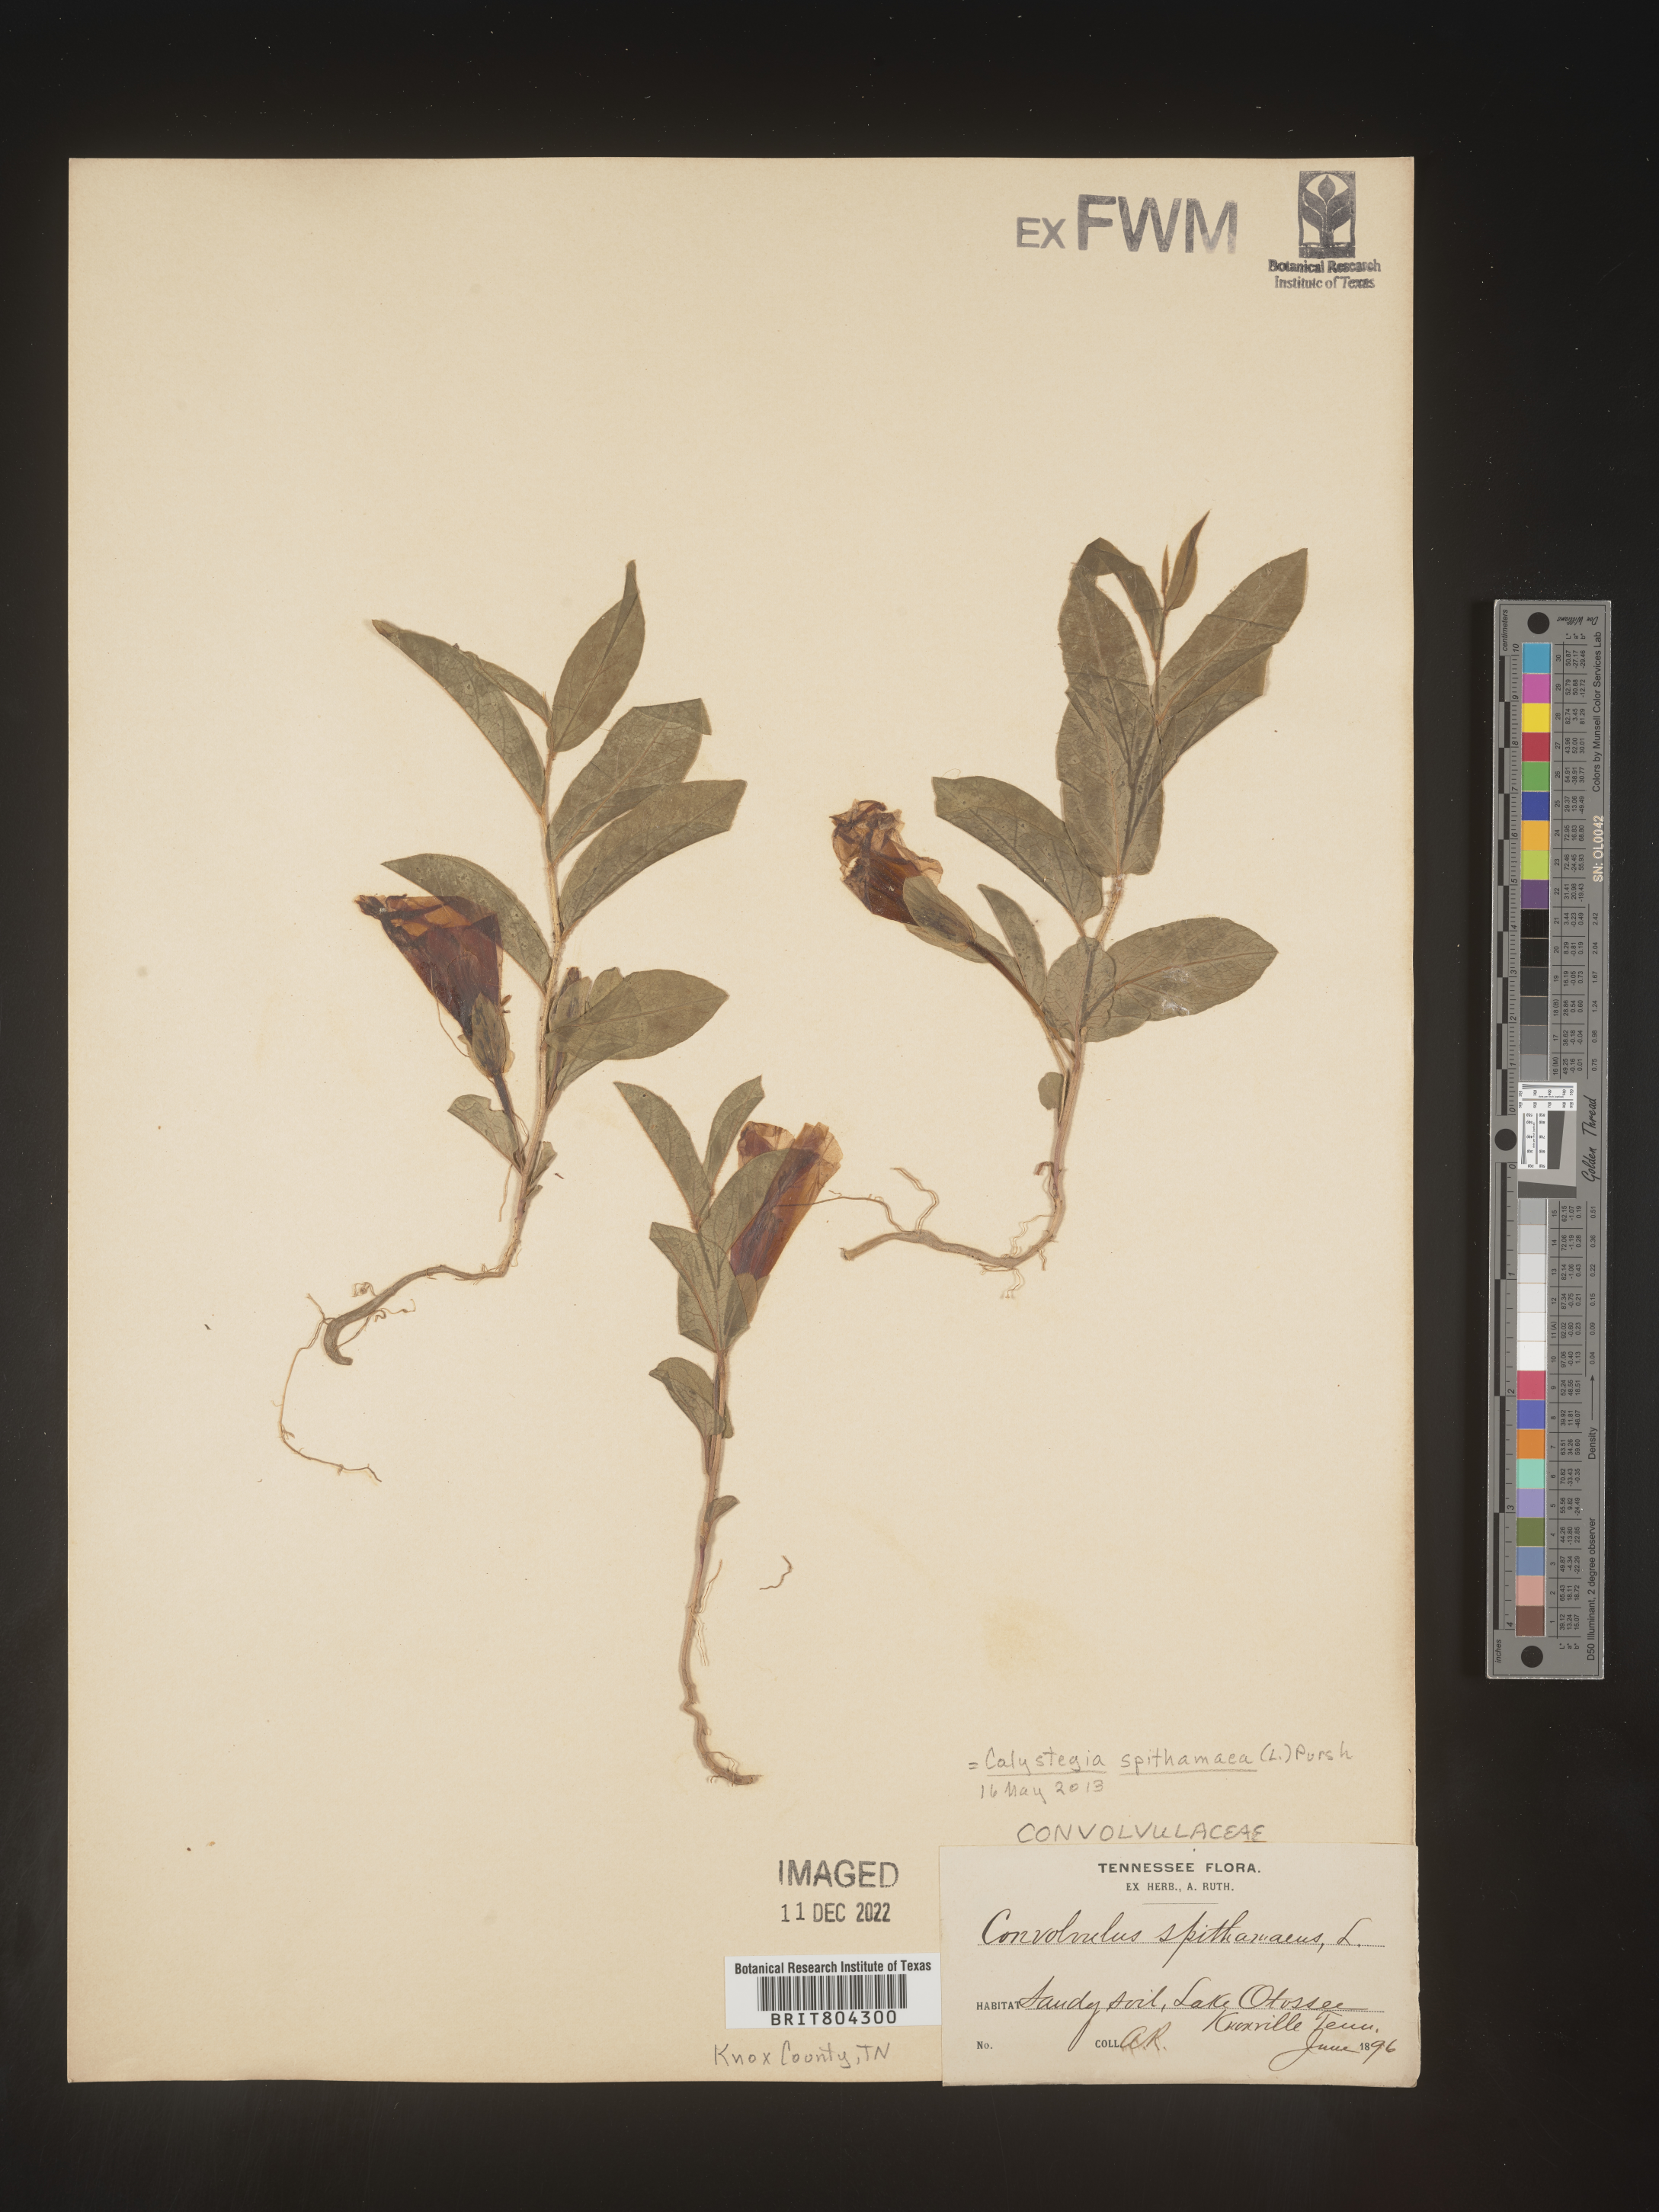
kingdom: Plantae
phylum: Tracheophyta
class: Magnoliopsida
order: Solanales
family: Convolvulaceae
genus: Calystegia
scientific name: Calystegia
